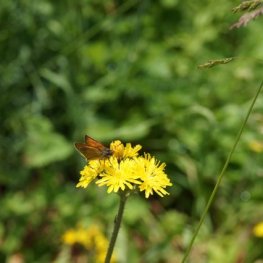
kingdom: Animalia
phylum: Arthropoda
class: Insecta
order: Lepidoptera
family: Hesperiidae
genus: Thymelicus
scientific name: Thymelicus lineola
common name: European Skipper
